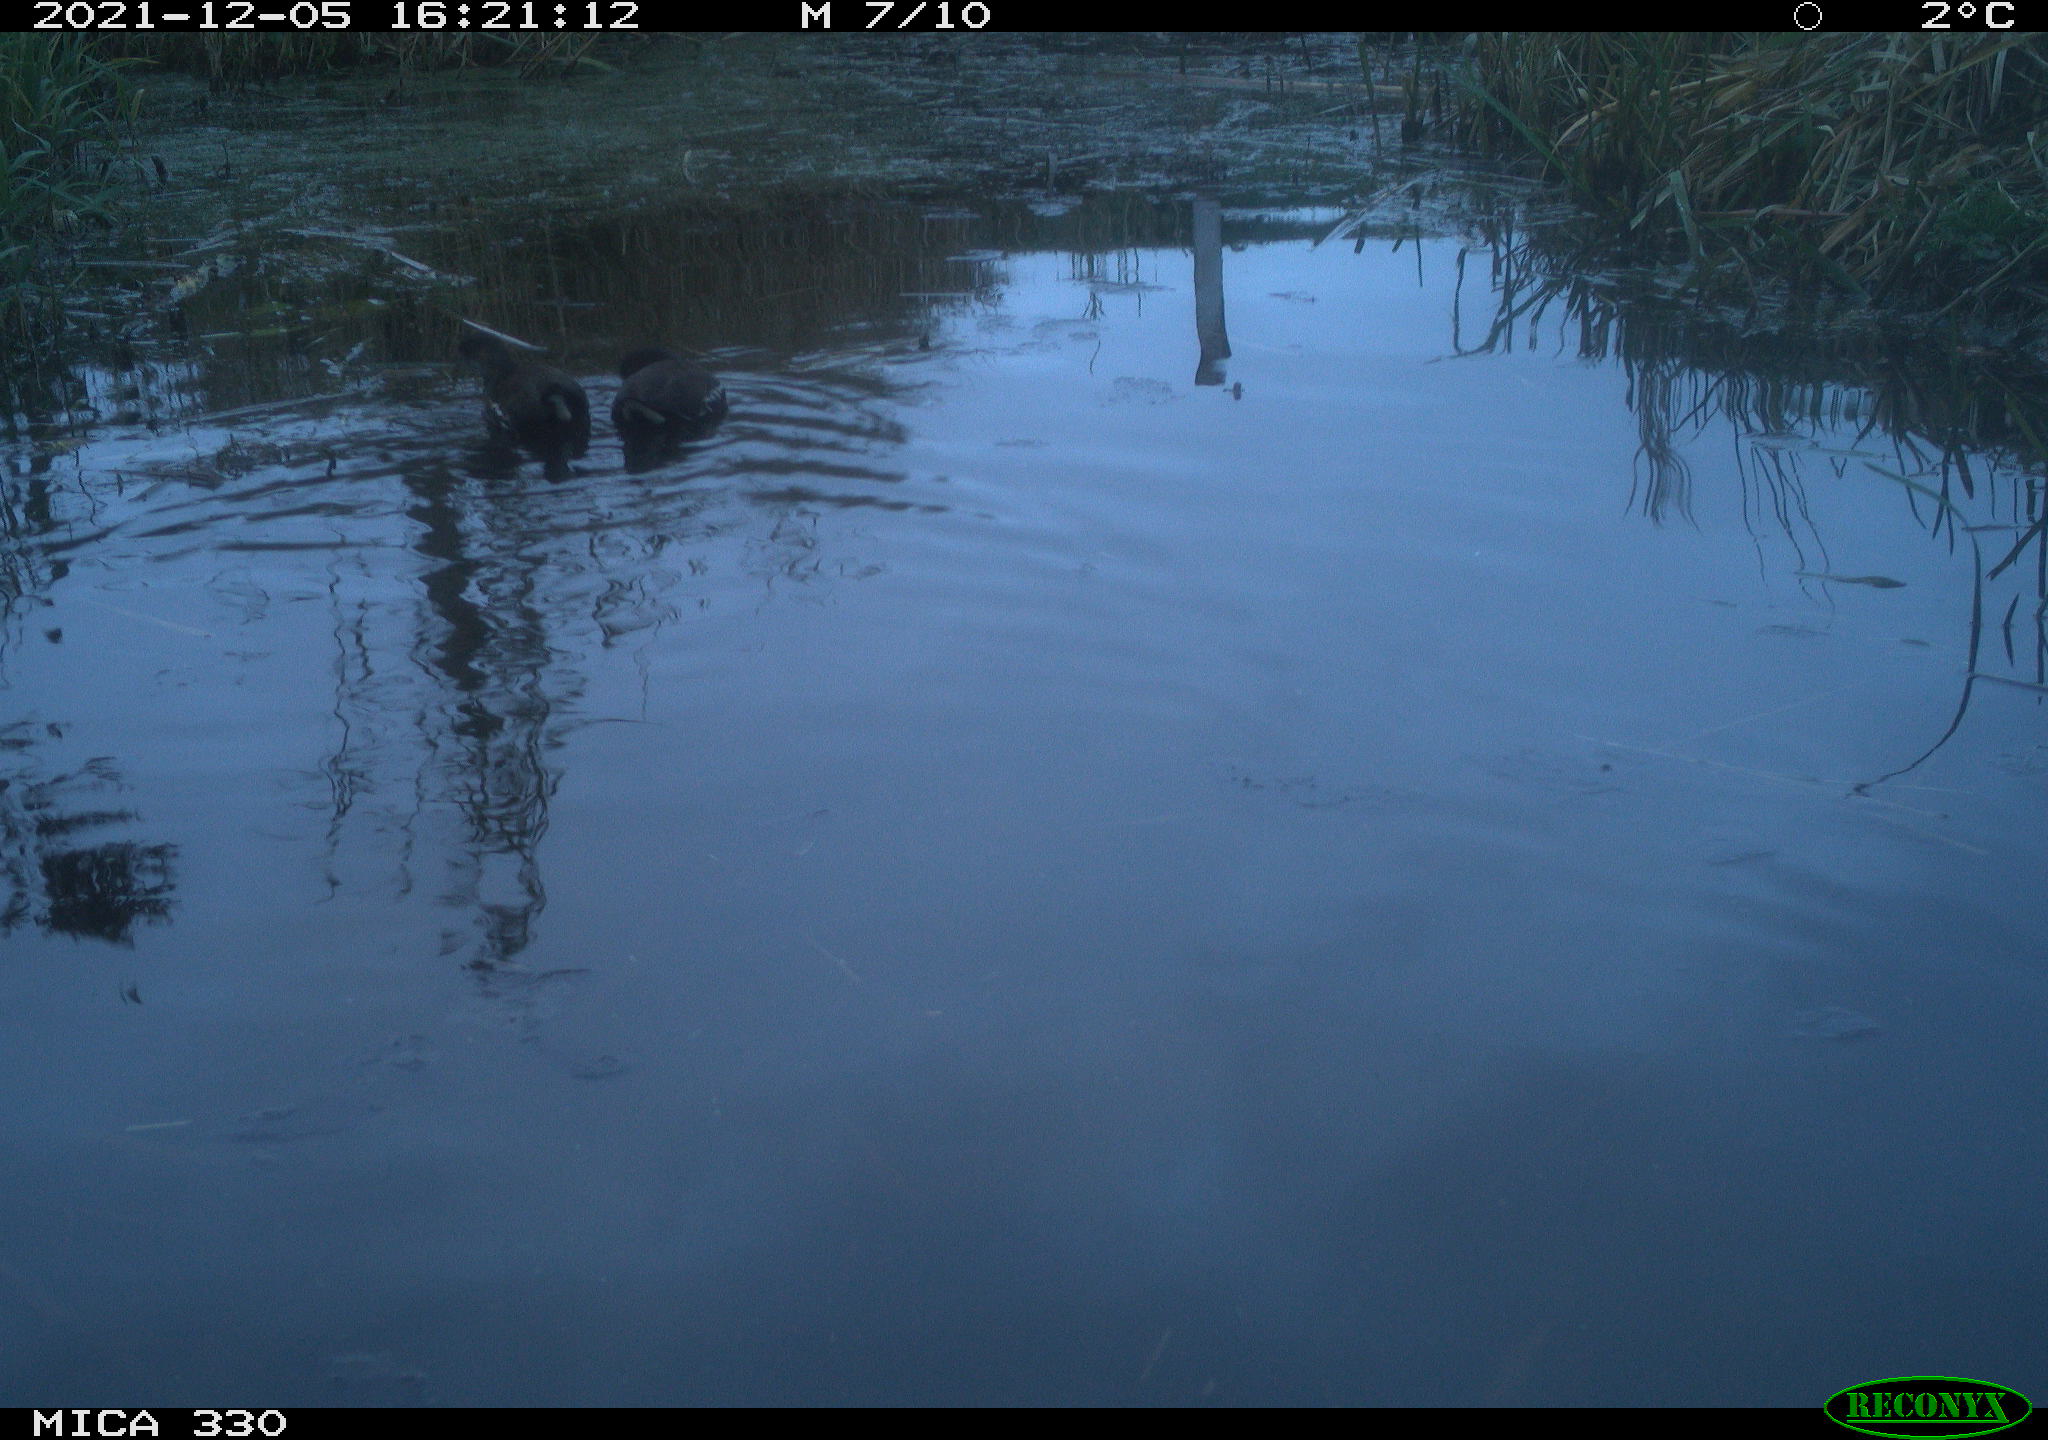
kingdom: Animalia
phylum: Chordata
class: Aves
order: Gruiformes
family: Rallidae
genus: Gallinula
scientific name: Gallinula chloropus
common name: Common moorhen
